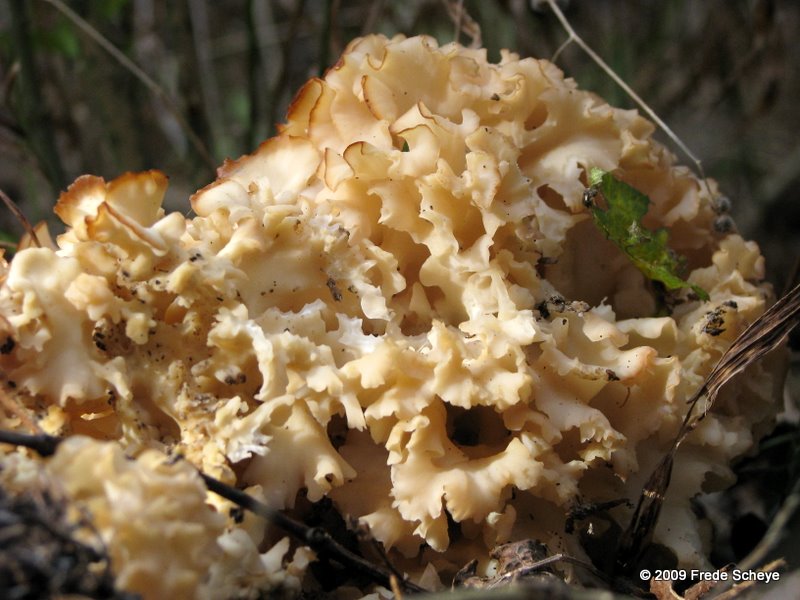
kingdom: Fungi
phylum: Basidiomycota
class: Agaricomycetes
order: Polyporales
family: Sparassidaceae
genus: Sparassis
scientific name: Sparassis crispa
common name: kruset blomkålssvamp
